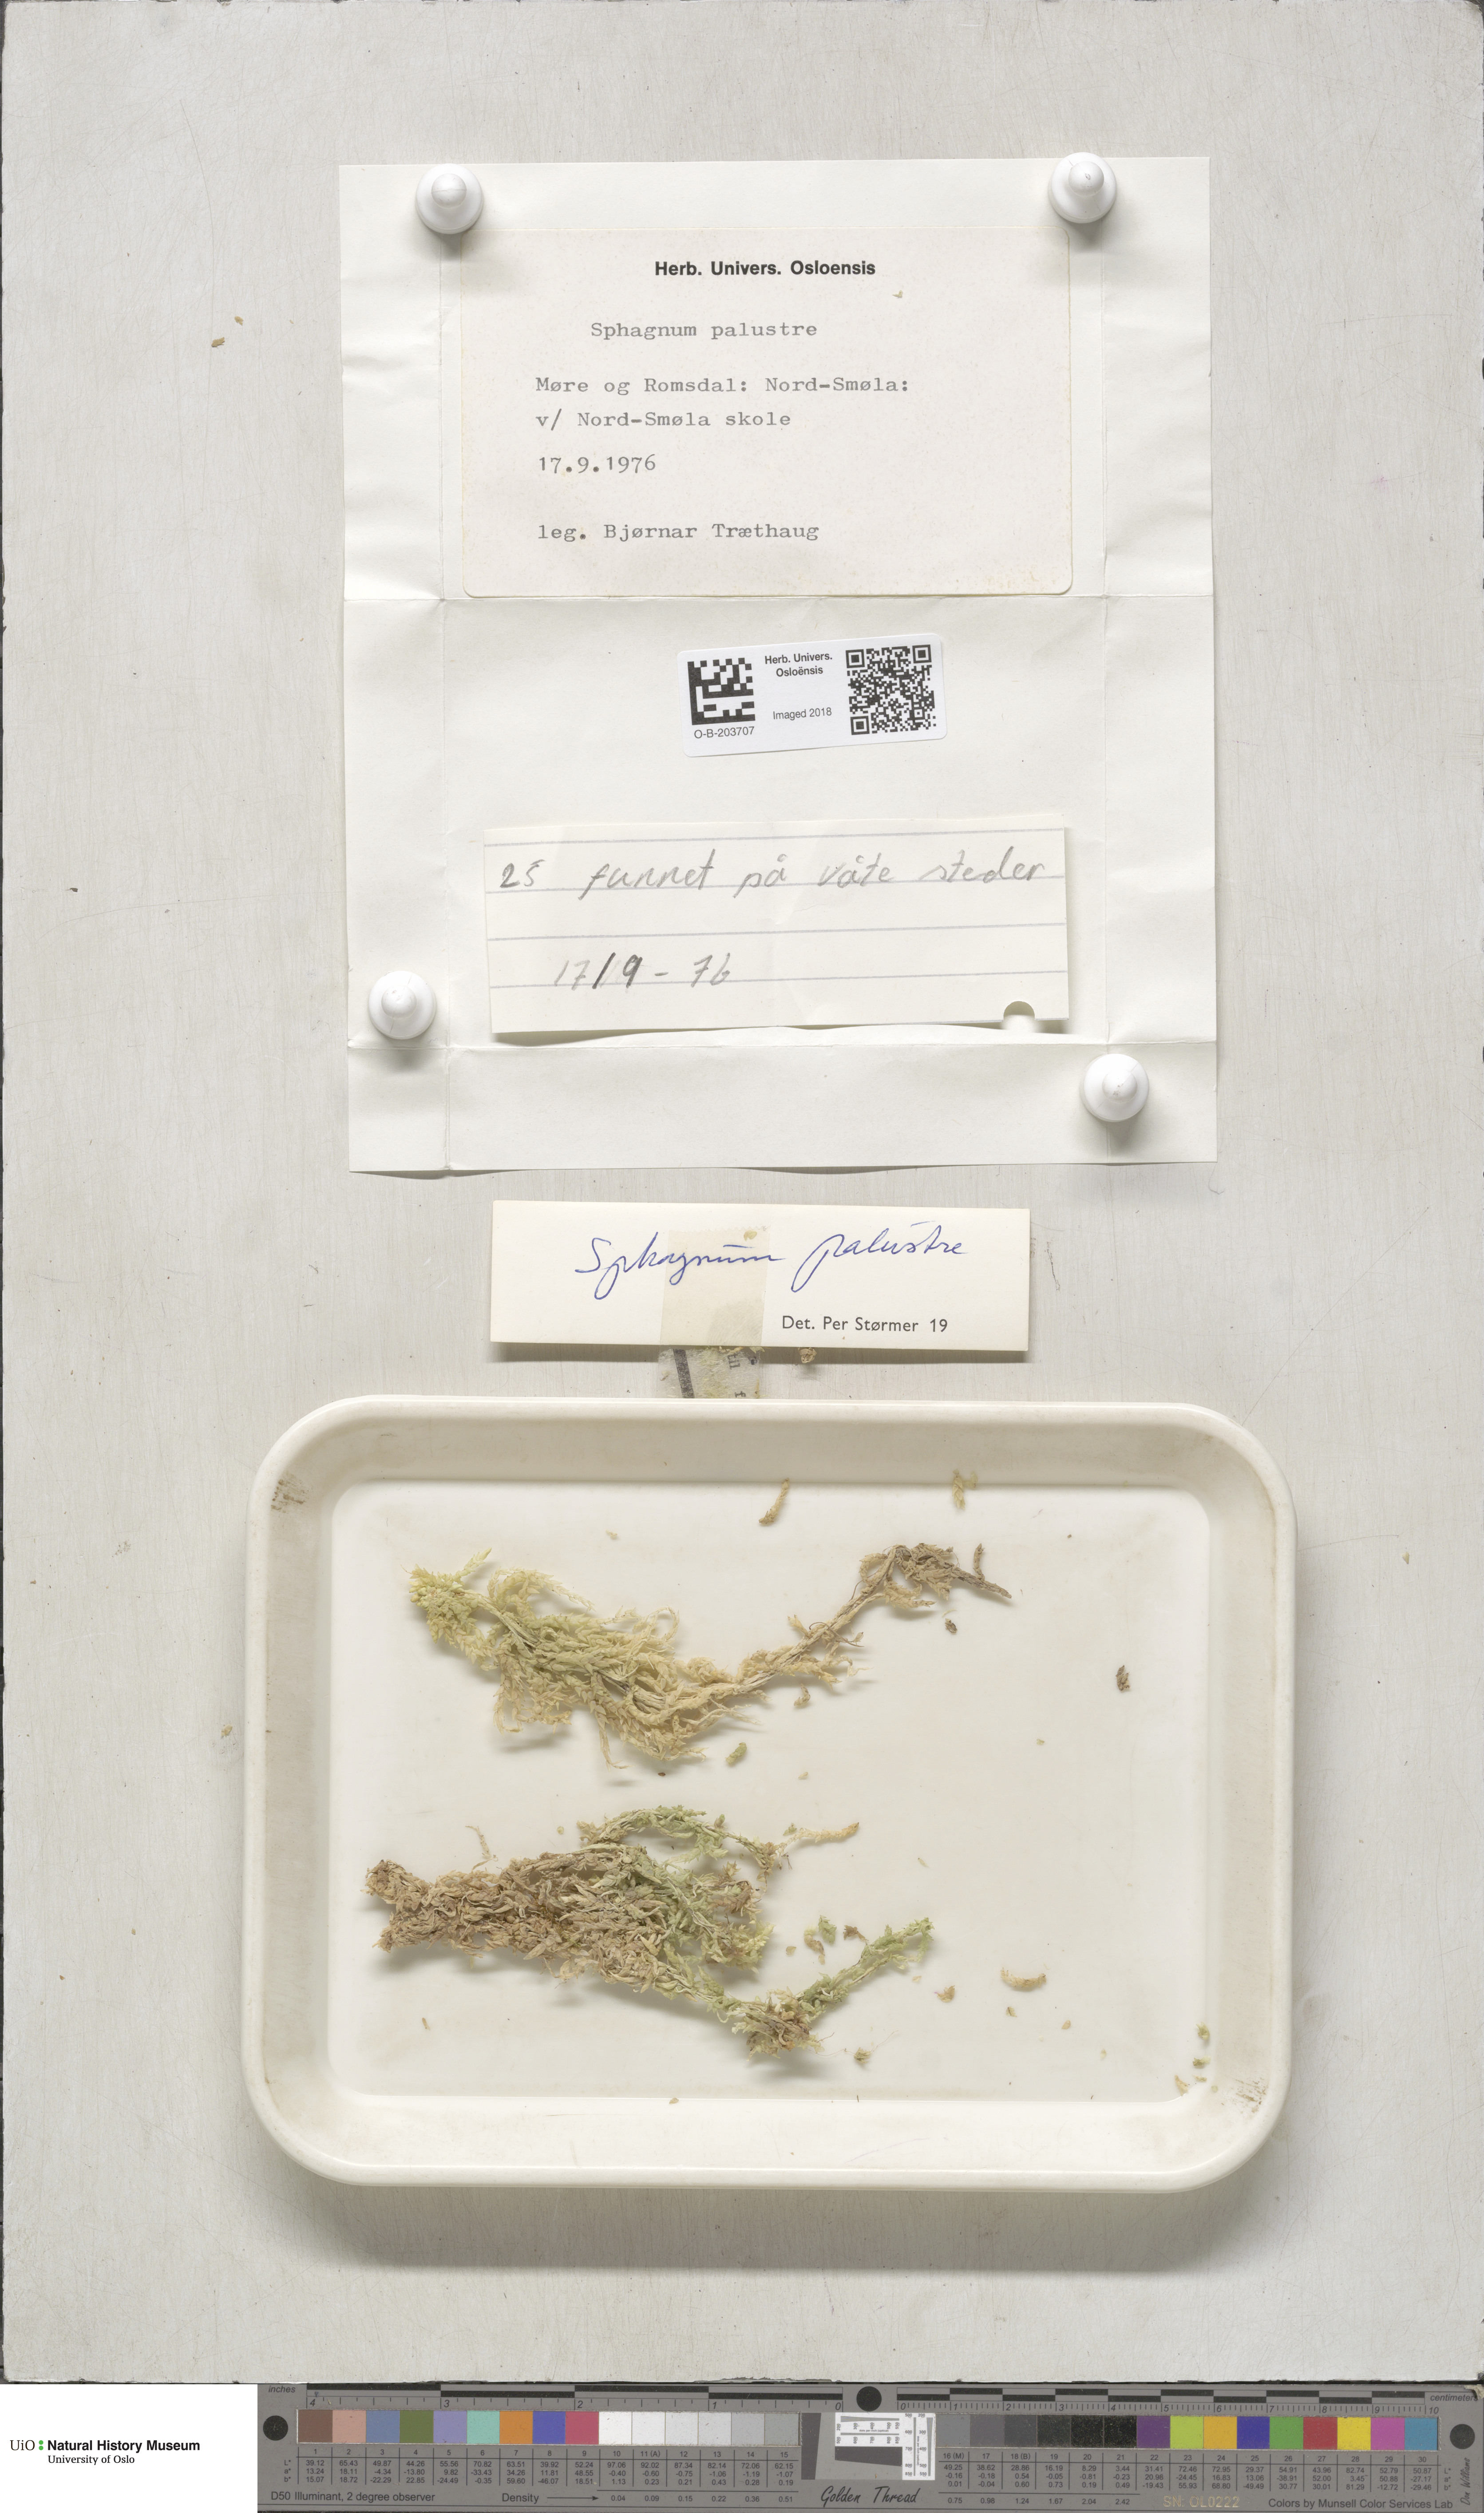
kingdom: Plantae
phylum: Bryophyta
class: Sphagnopsida
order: Sphagnales
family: Sphagnaceae
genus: Sphagnum
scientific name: Sphagnum palustre
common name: Blunt-leaved bog-moss
